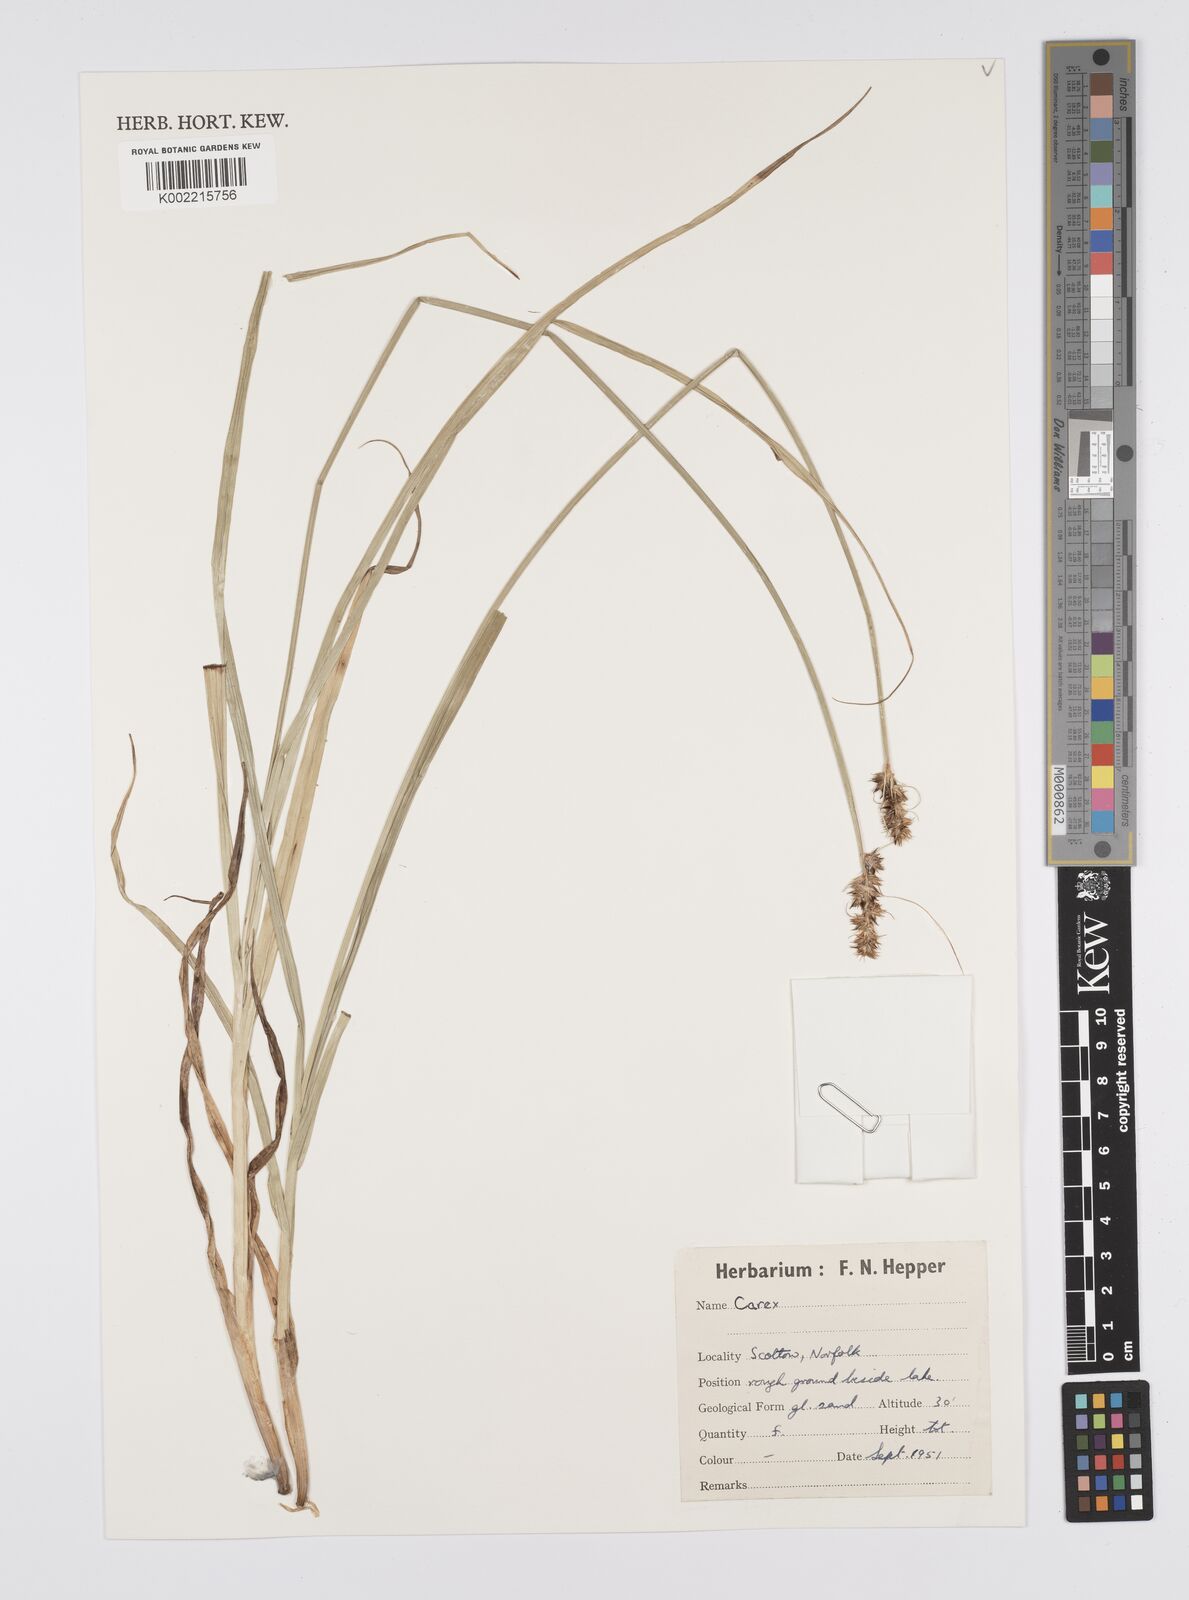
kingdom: Plantae
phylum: Tracheophyta
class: Liliopsida
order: Poales
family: Cyperaceae
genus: Carex
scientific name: Carex
